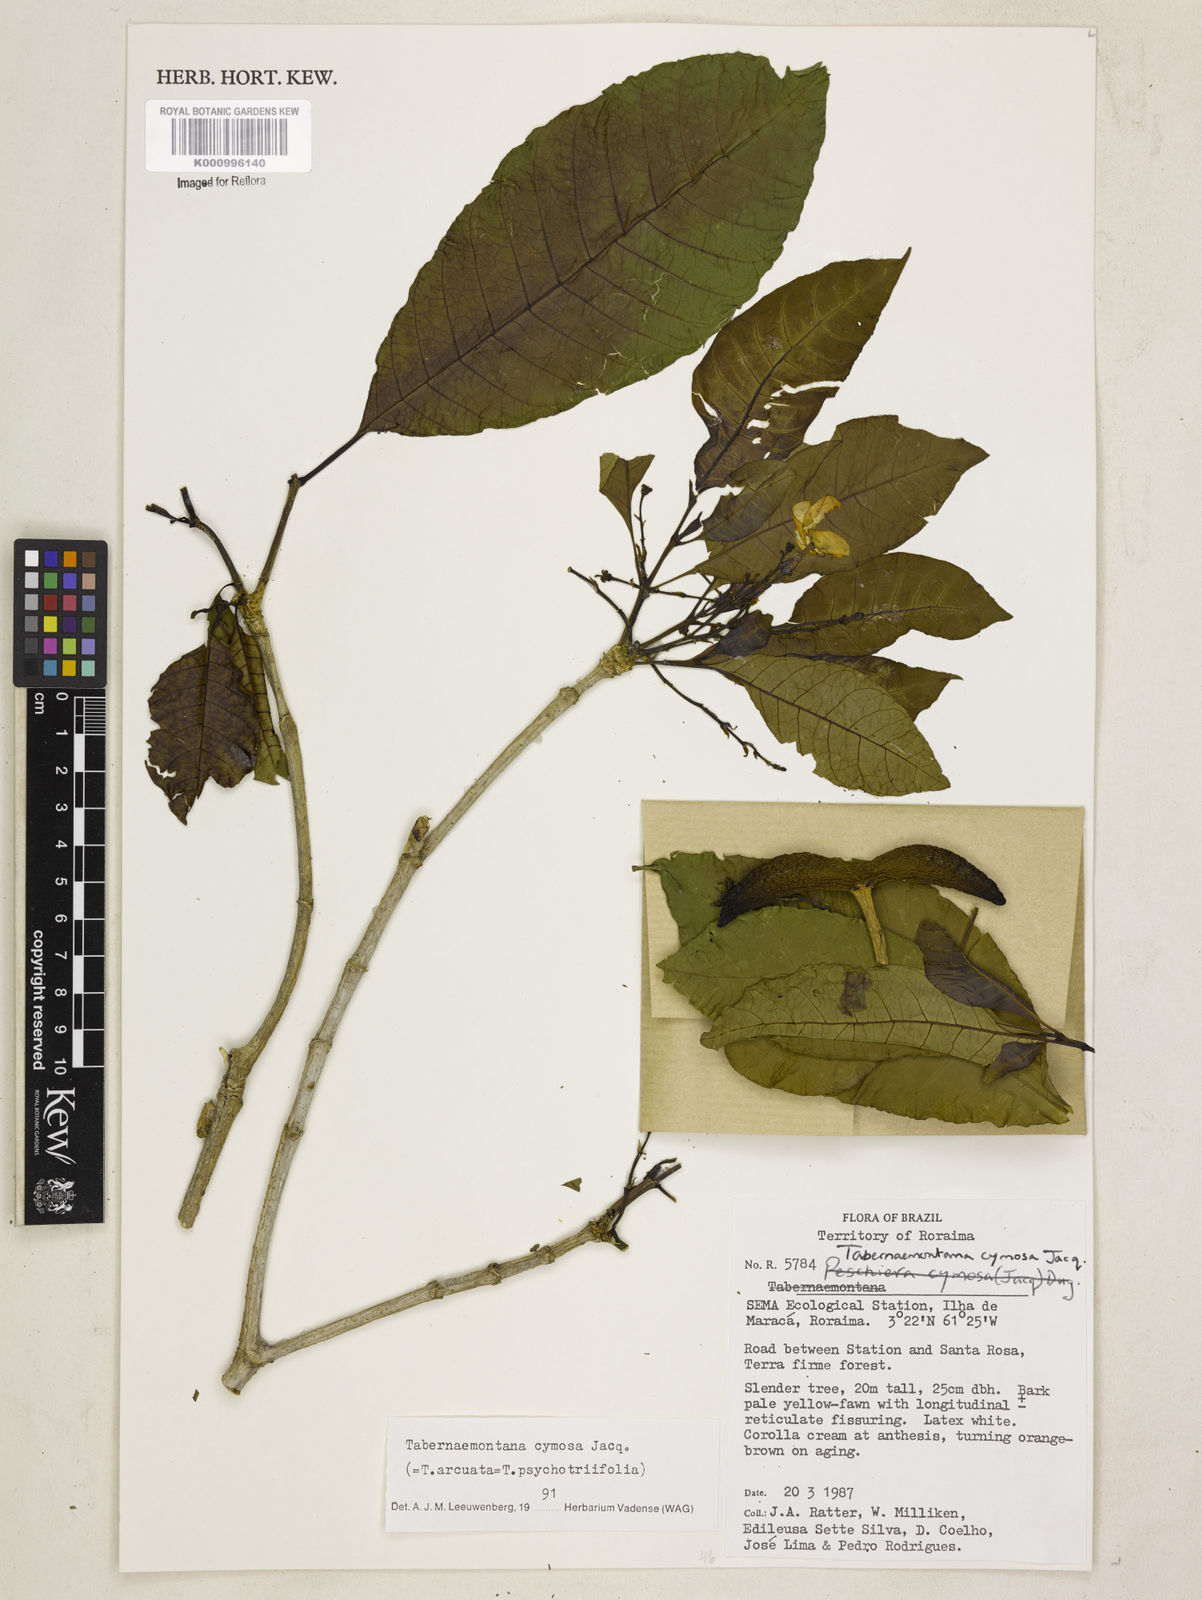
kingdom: Plantae
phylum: Tracheophyta
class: Magnoliopsida
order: Gentianales
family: Apocynaceae
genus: Tabernaemontana
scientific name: Tabernaemontana cymosa
